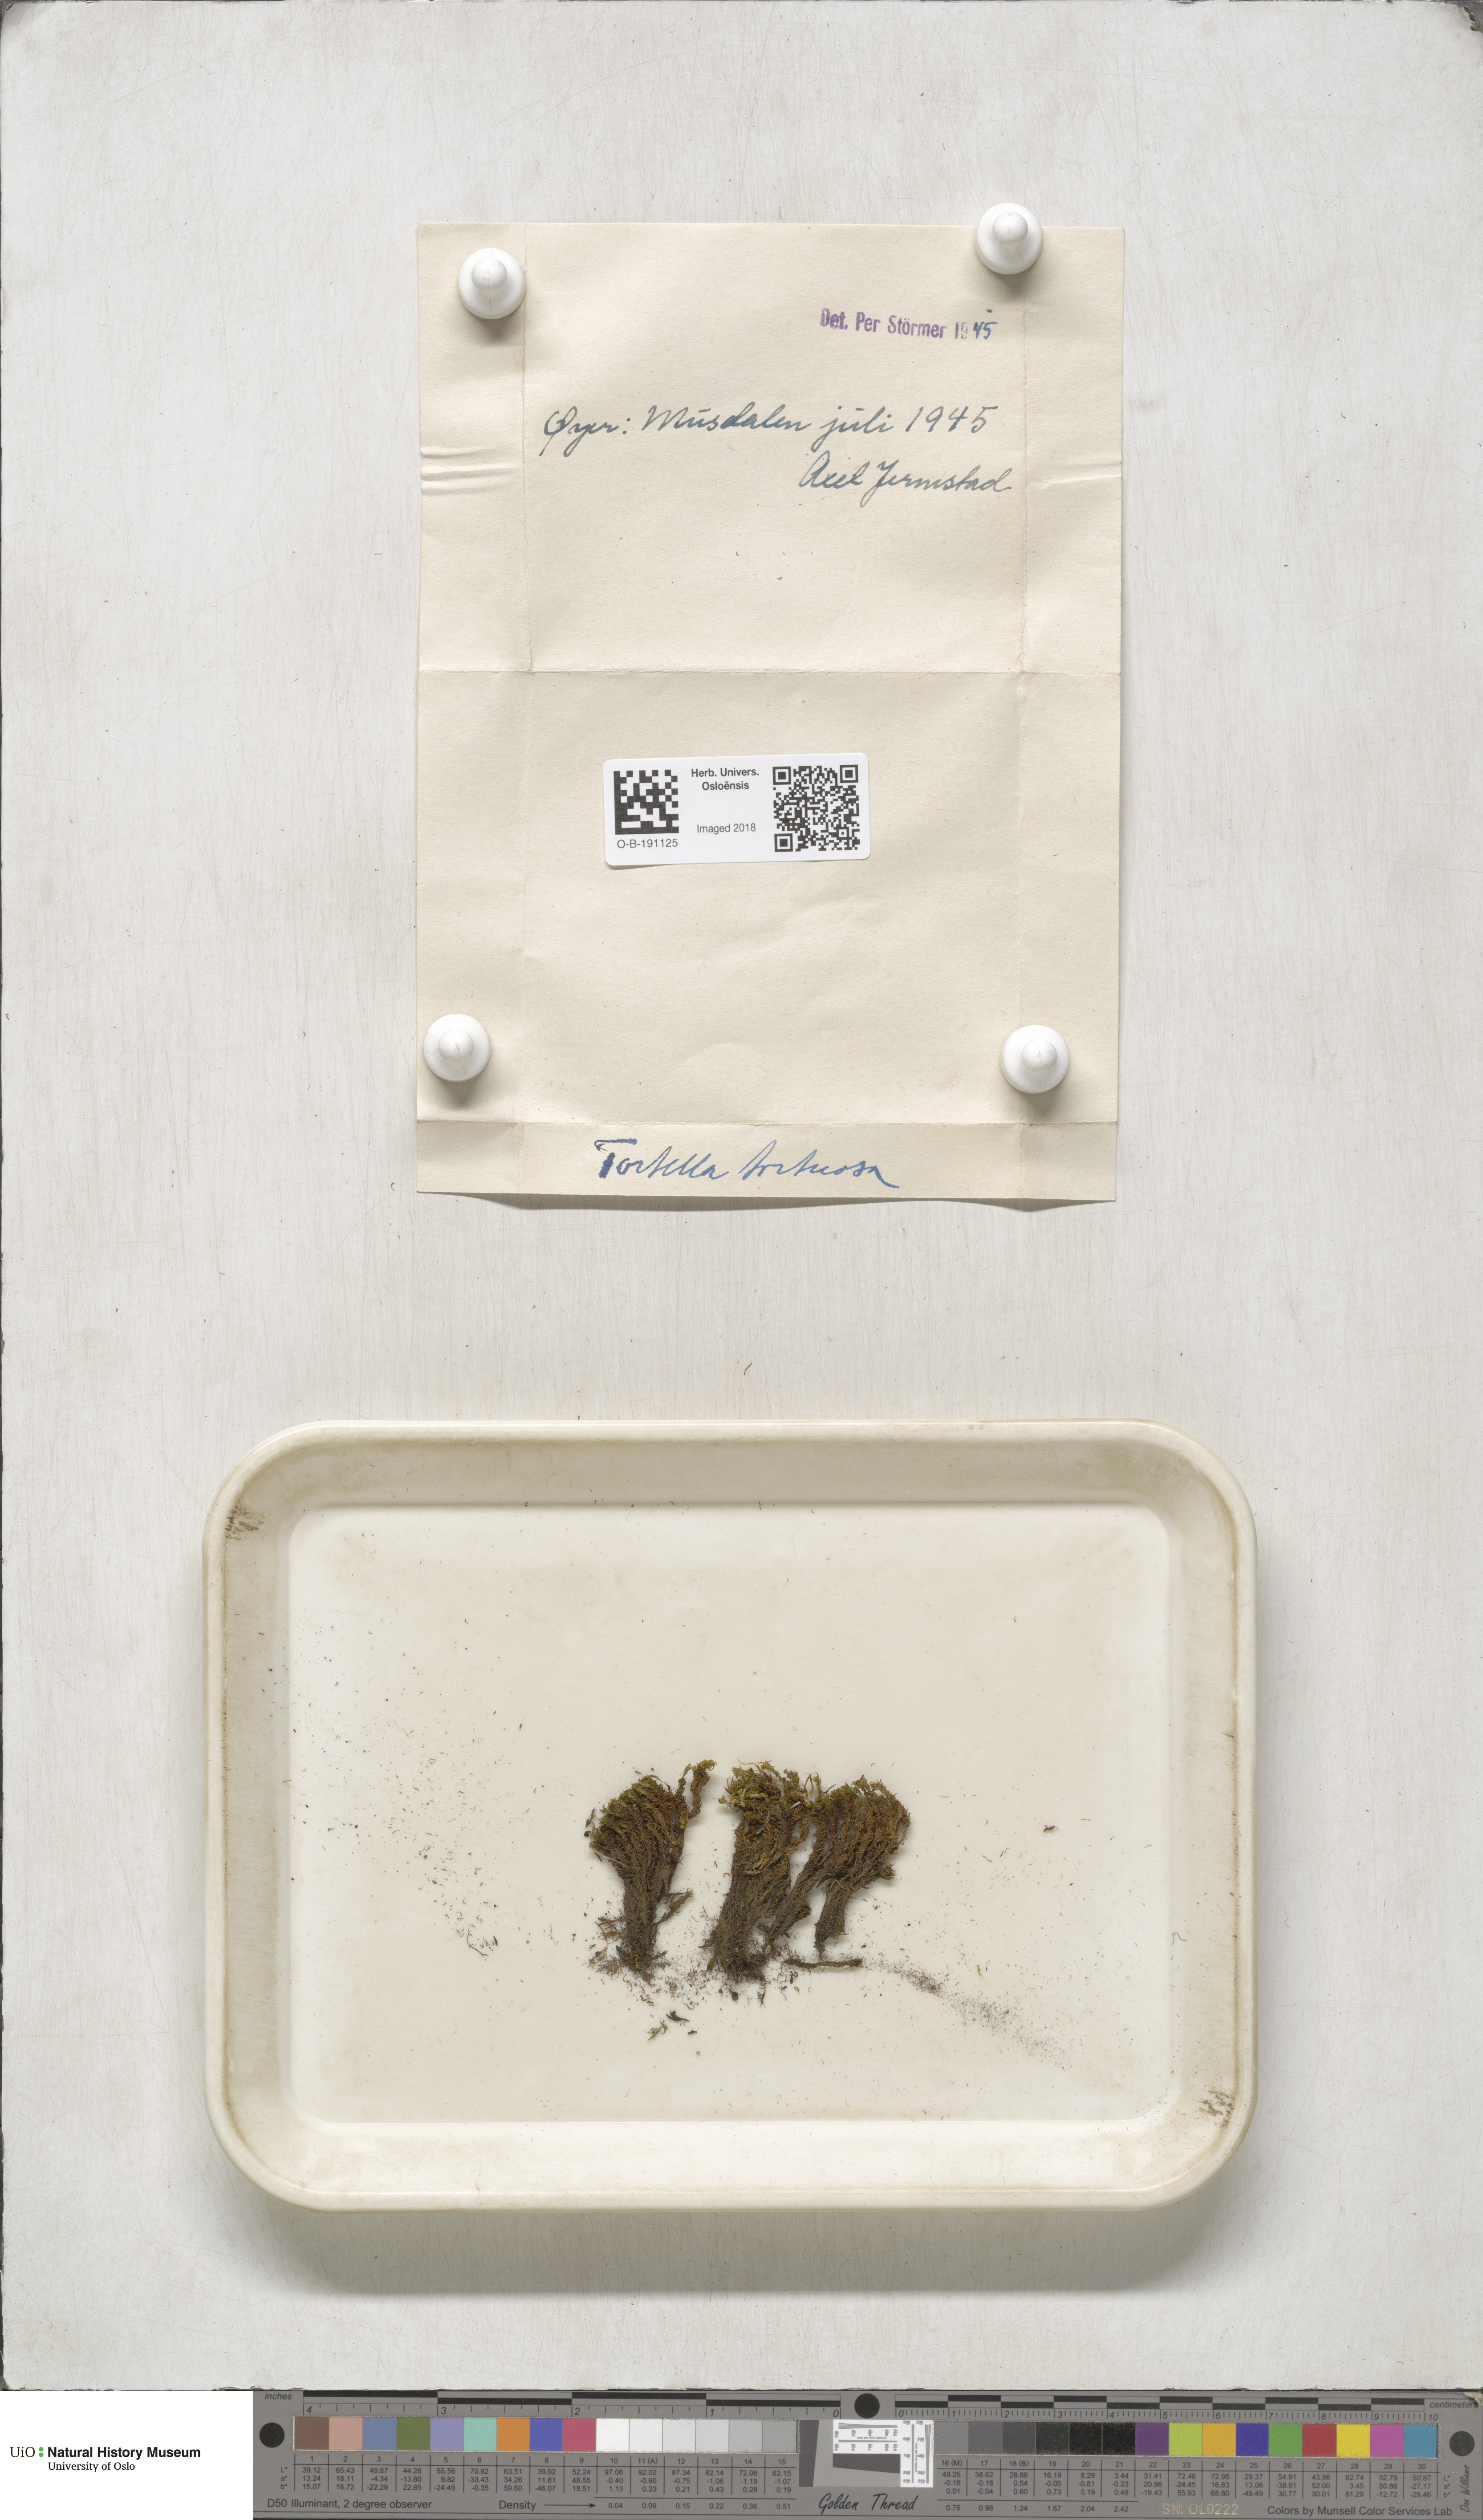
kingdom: Plantae
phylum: Bryophyta
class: Bryopsida
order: Pottiales
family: Pottiaceae
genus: Tortella
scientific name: Tortella tortuosa
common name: Frizzled crisp moss
